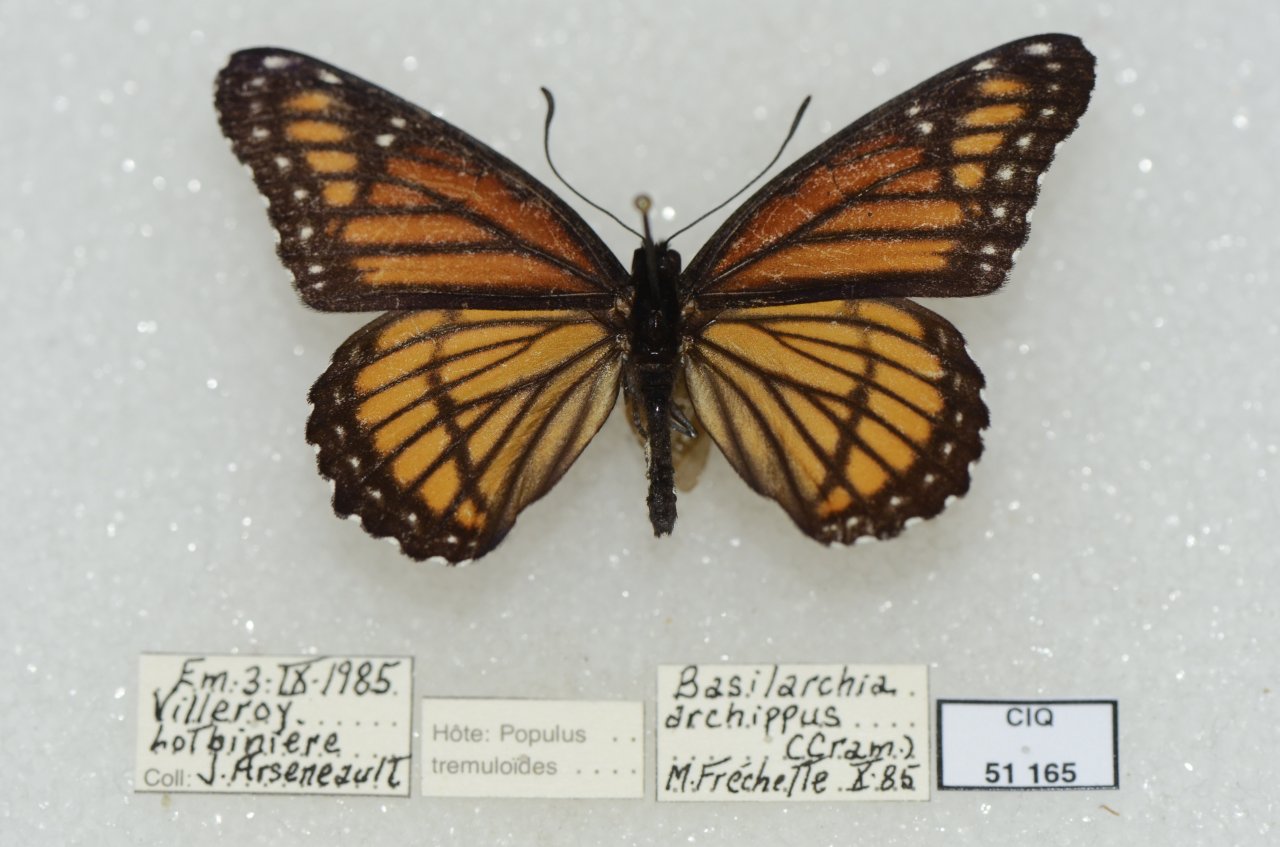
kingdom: Animalia
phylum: Arthropoda
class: Insecta
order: Lepidoptera
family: Nymphalidae
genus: Limenitis
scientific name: Limenitis archippus
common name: Viceroy
